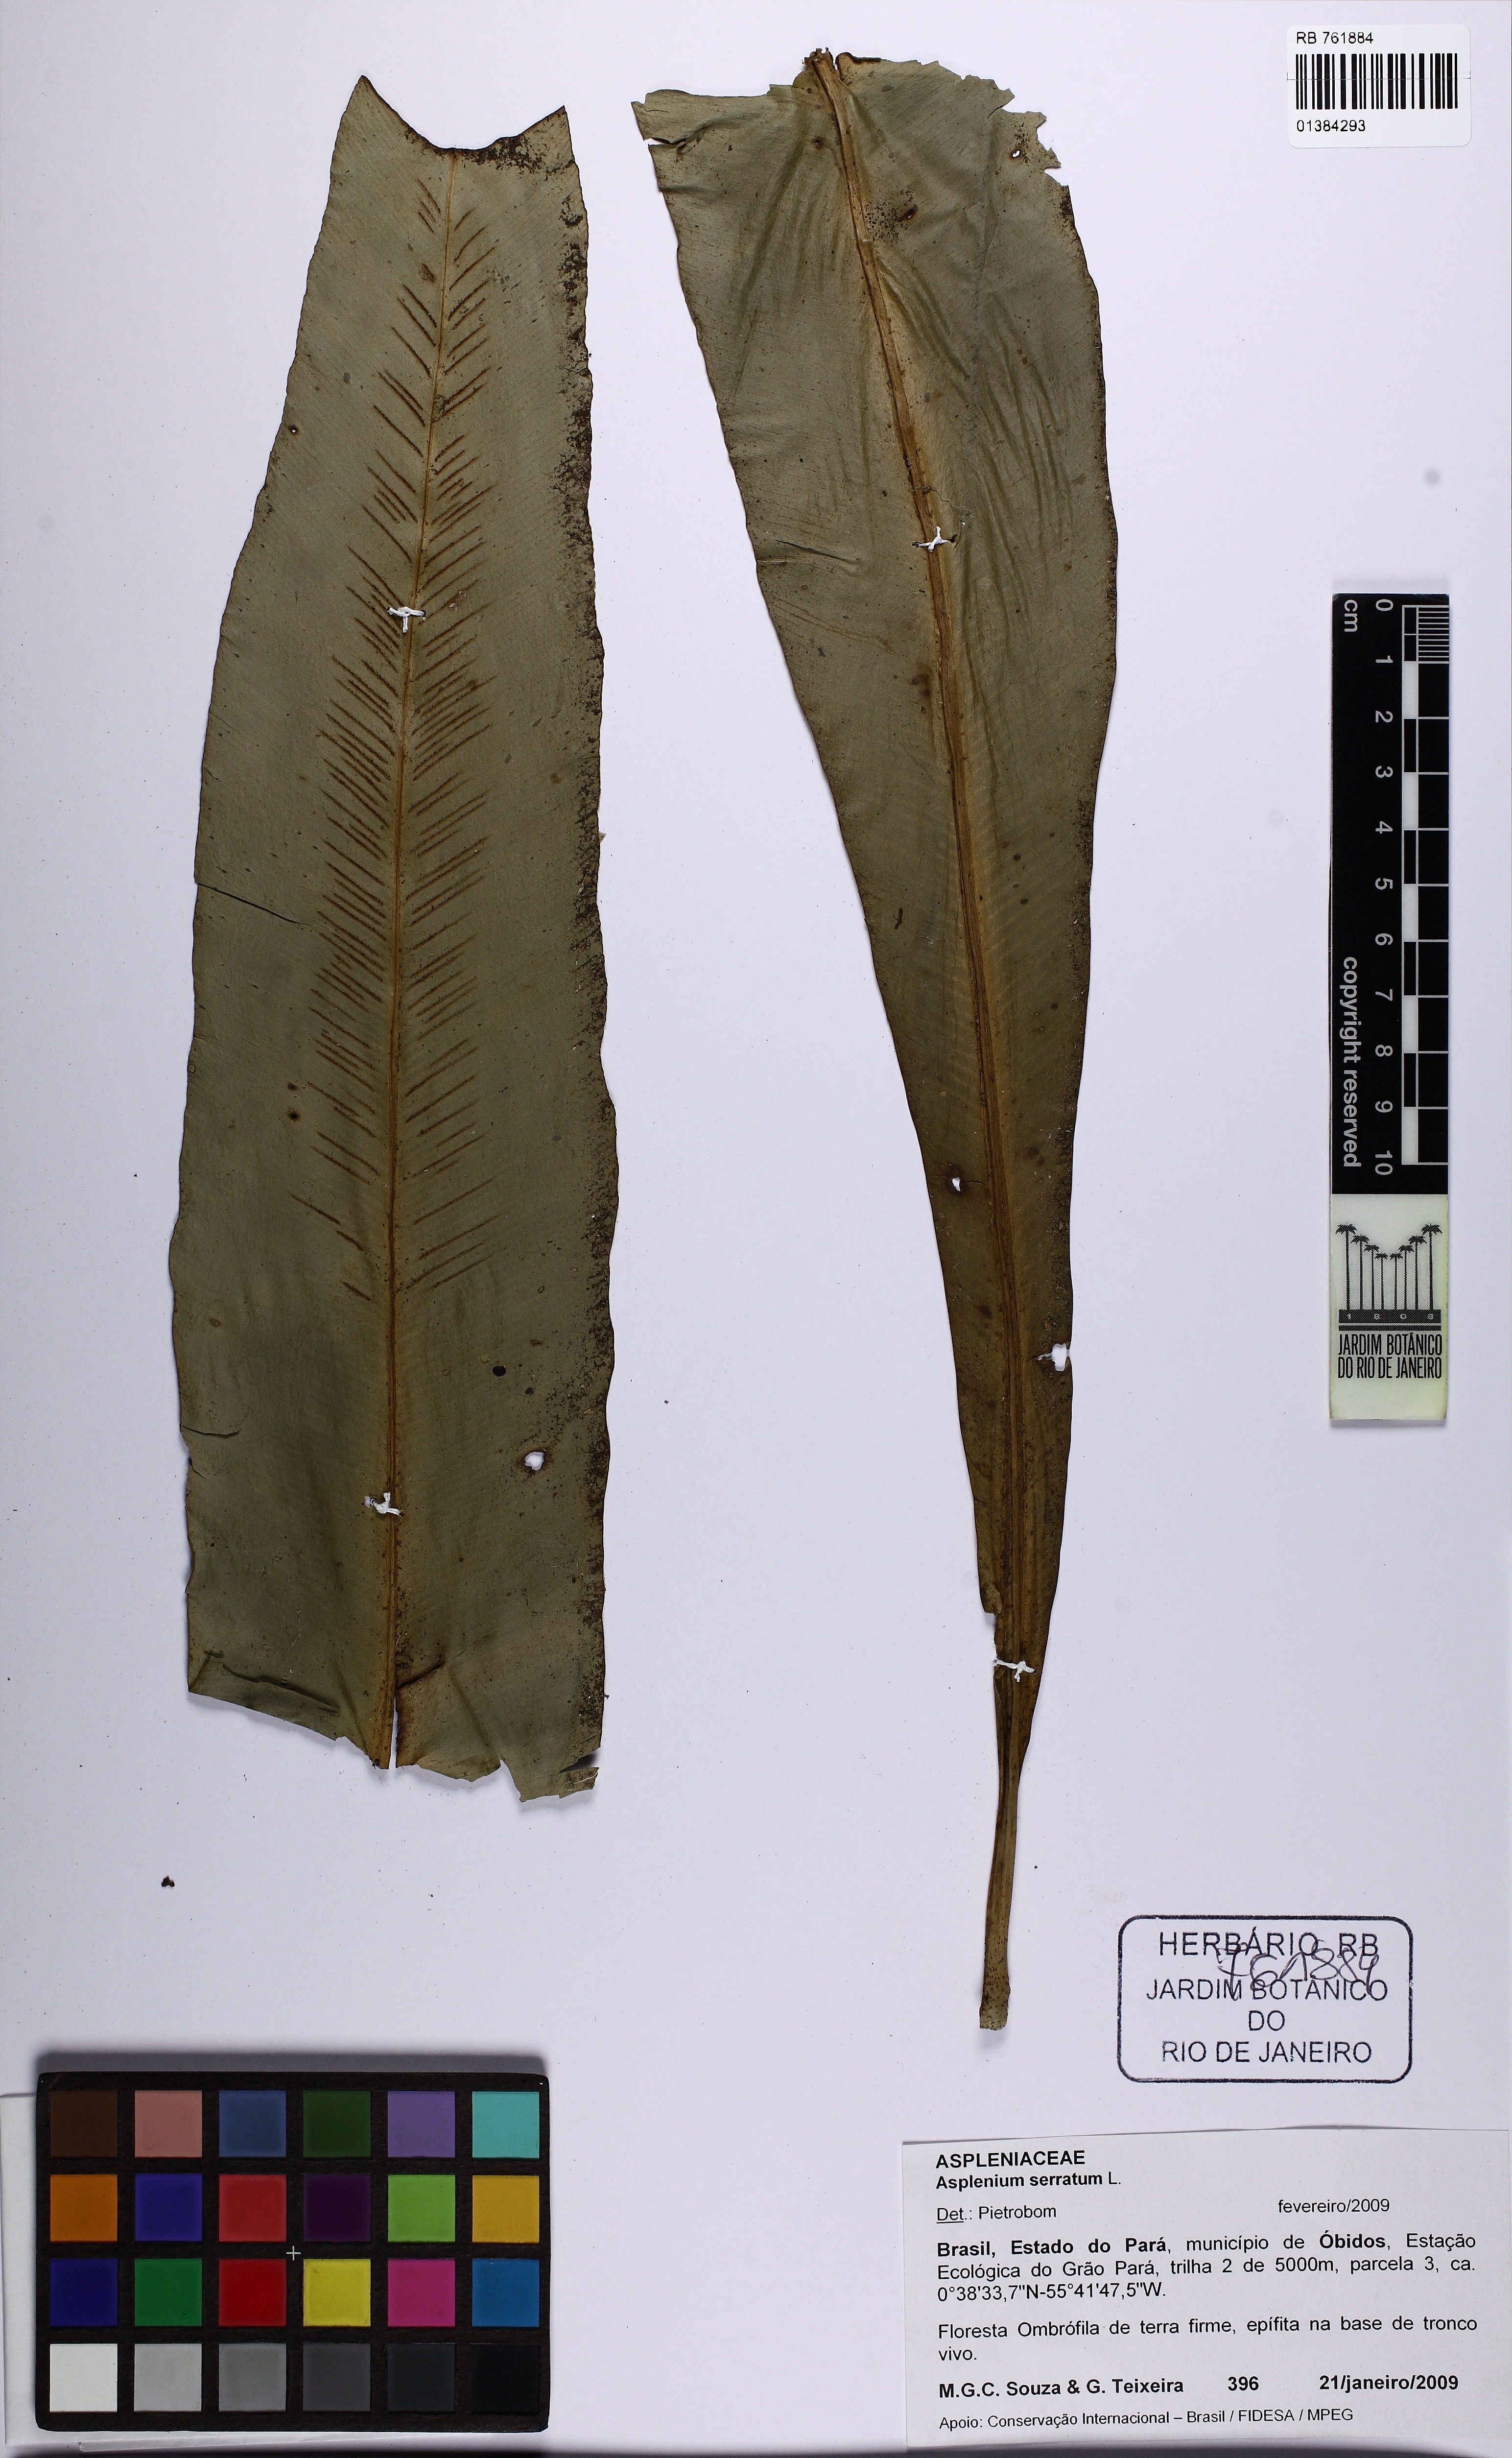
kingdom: Plantae
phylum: Tracheophyta
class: Polypodiopsida
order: Polypodiales
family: Aspleniaceae
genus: Asplenium
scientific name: Asplenium serratum
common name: Wild birdnest fern
